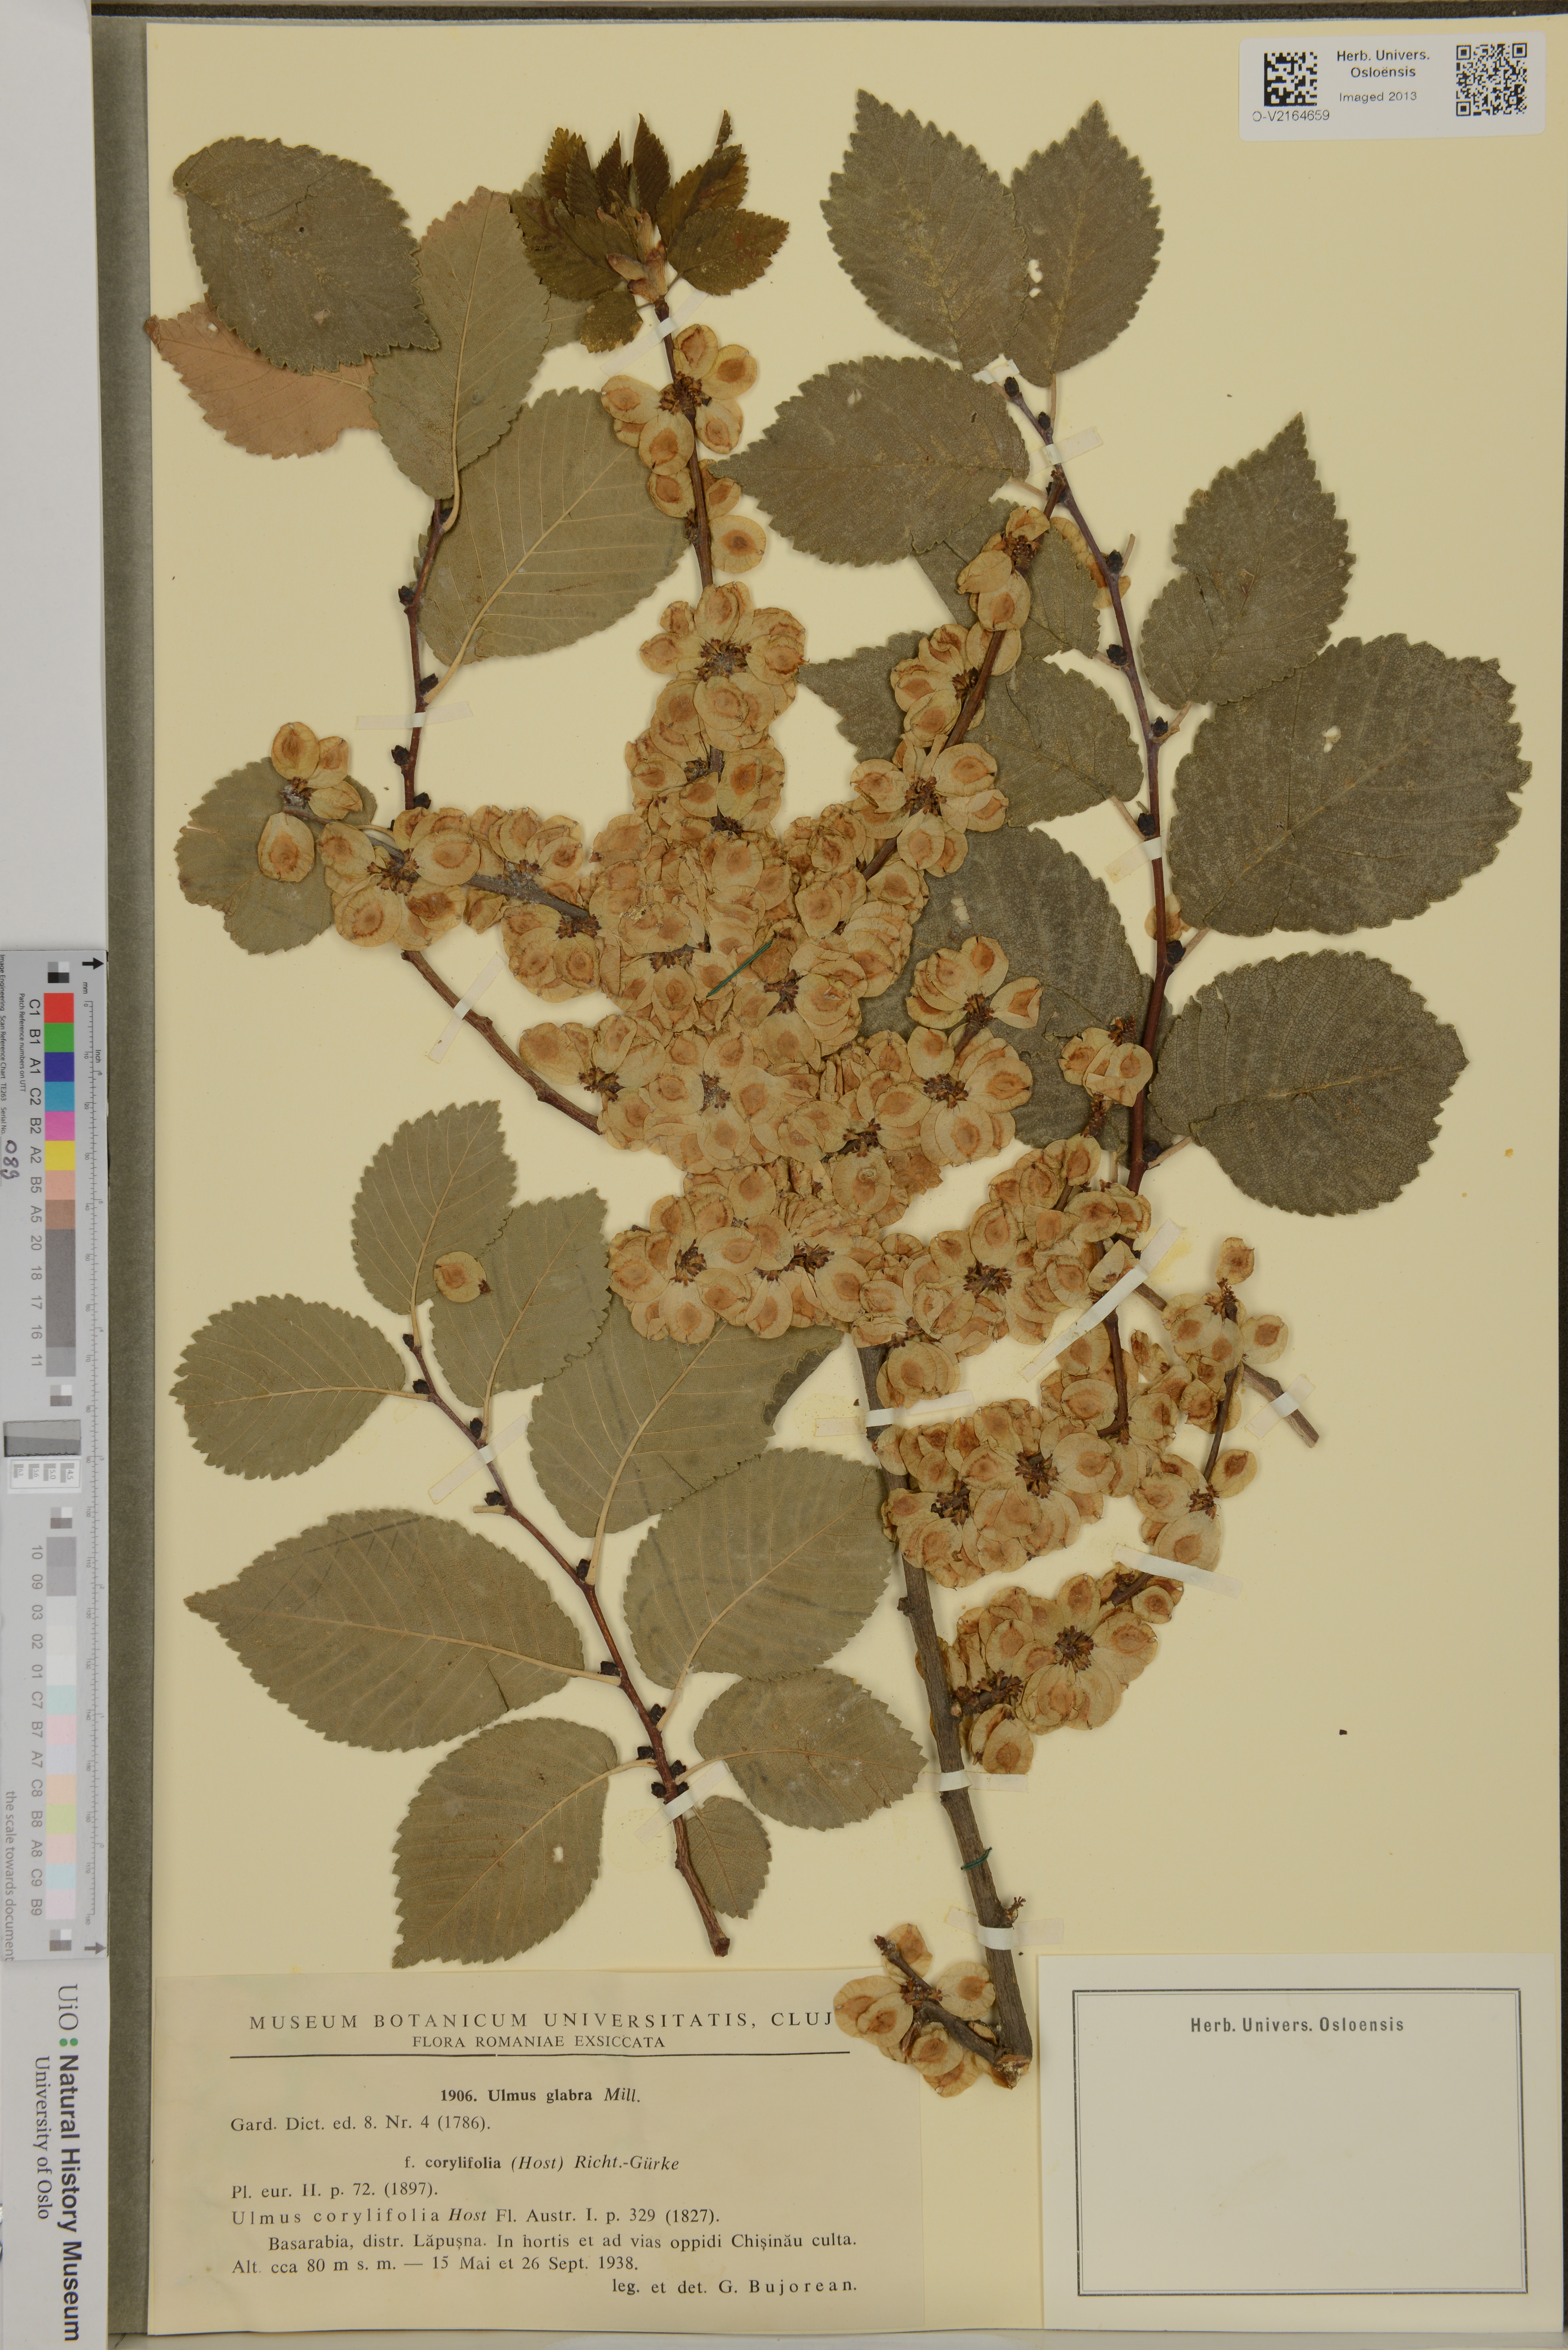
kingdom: Plantae
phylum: Tracheophyta
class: Magnoliopsida
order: Rosales
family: Ulmaceae
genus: Ulmus
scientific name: Ulmus glabra
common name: Wych elm
